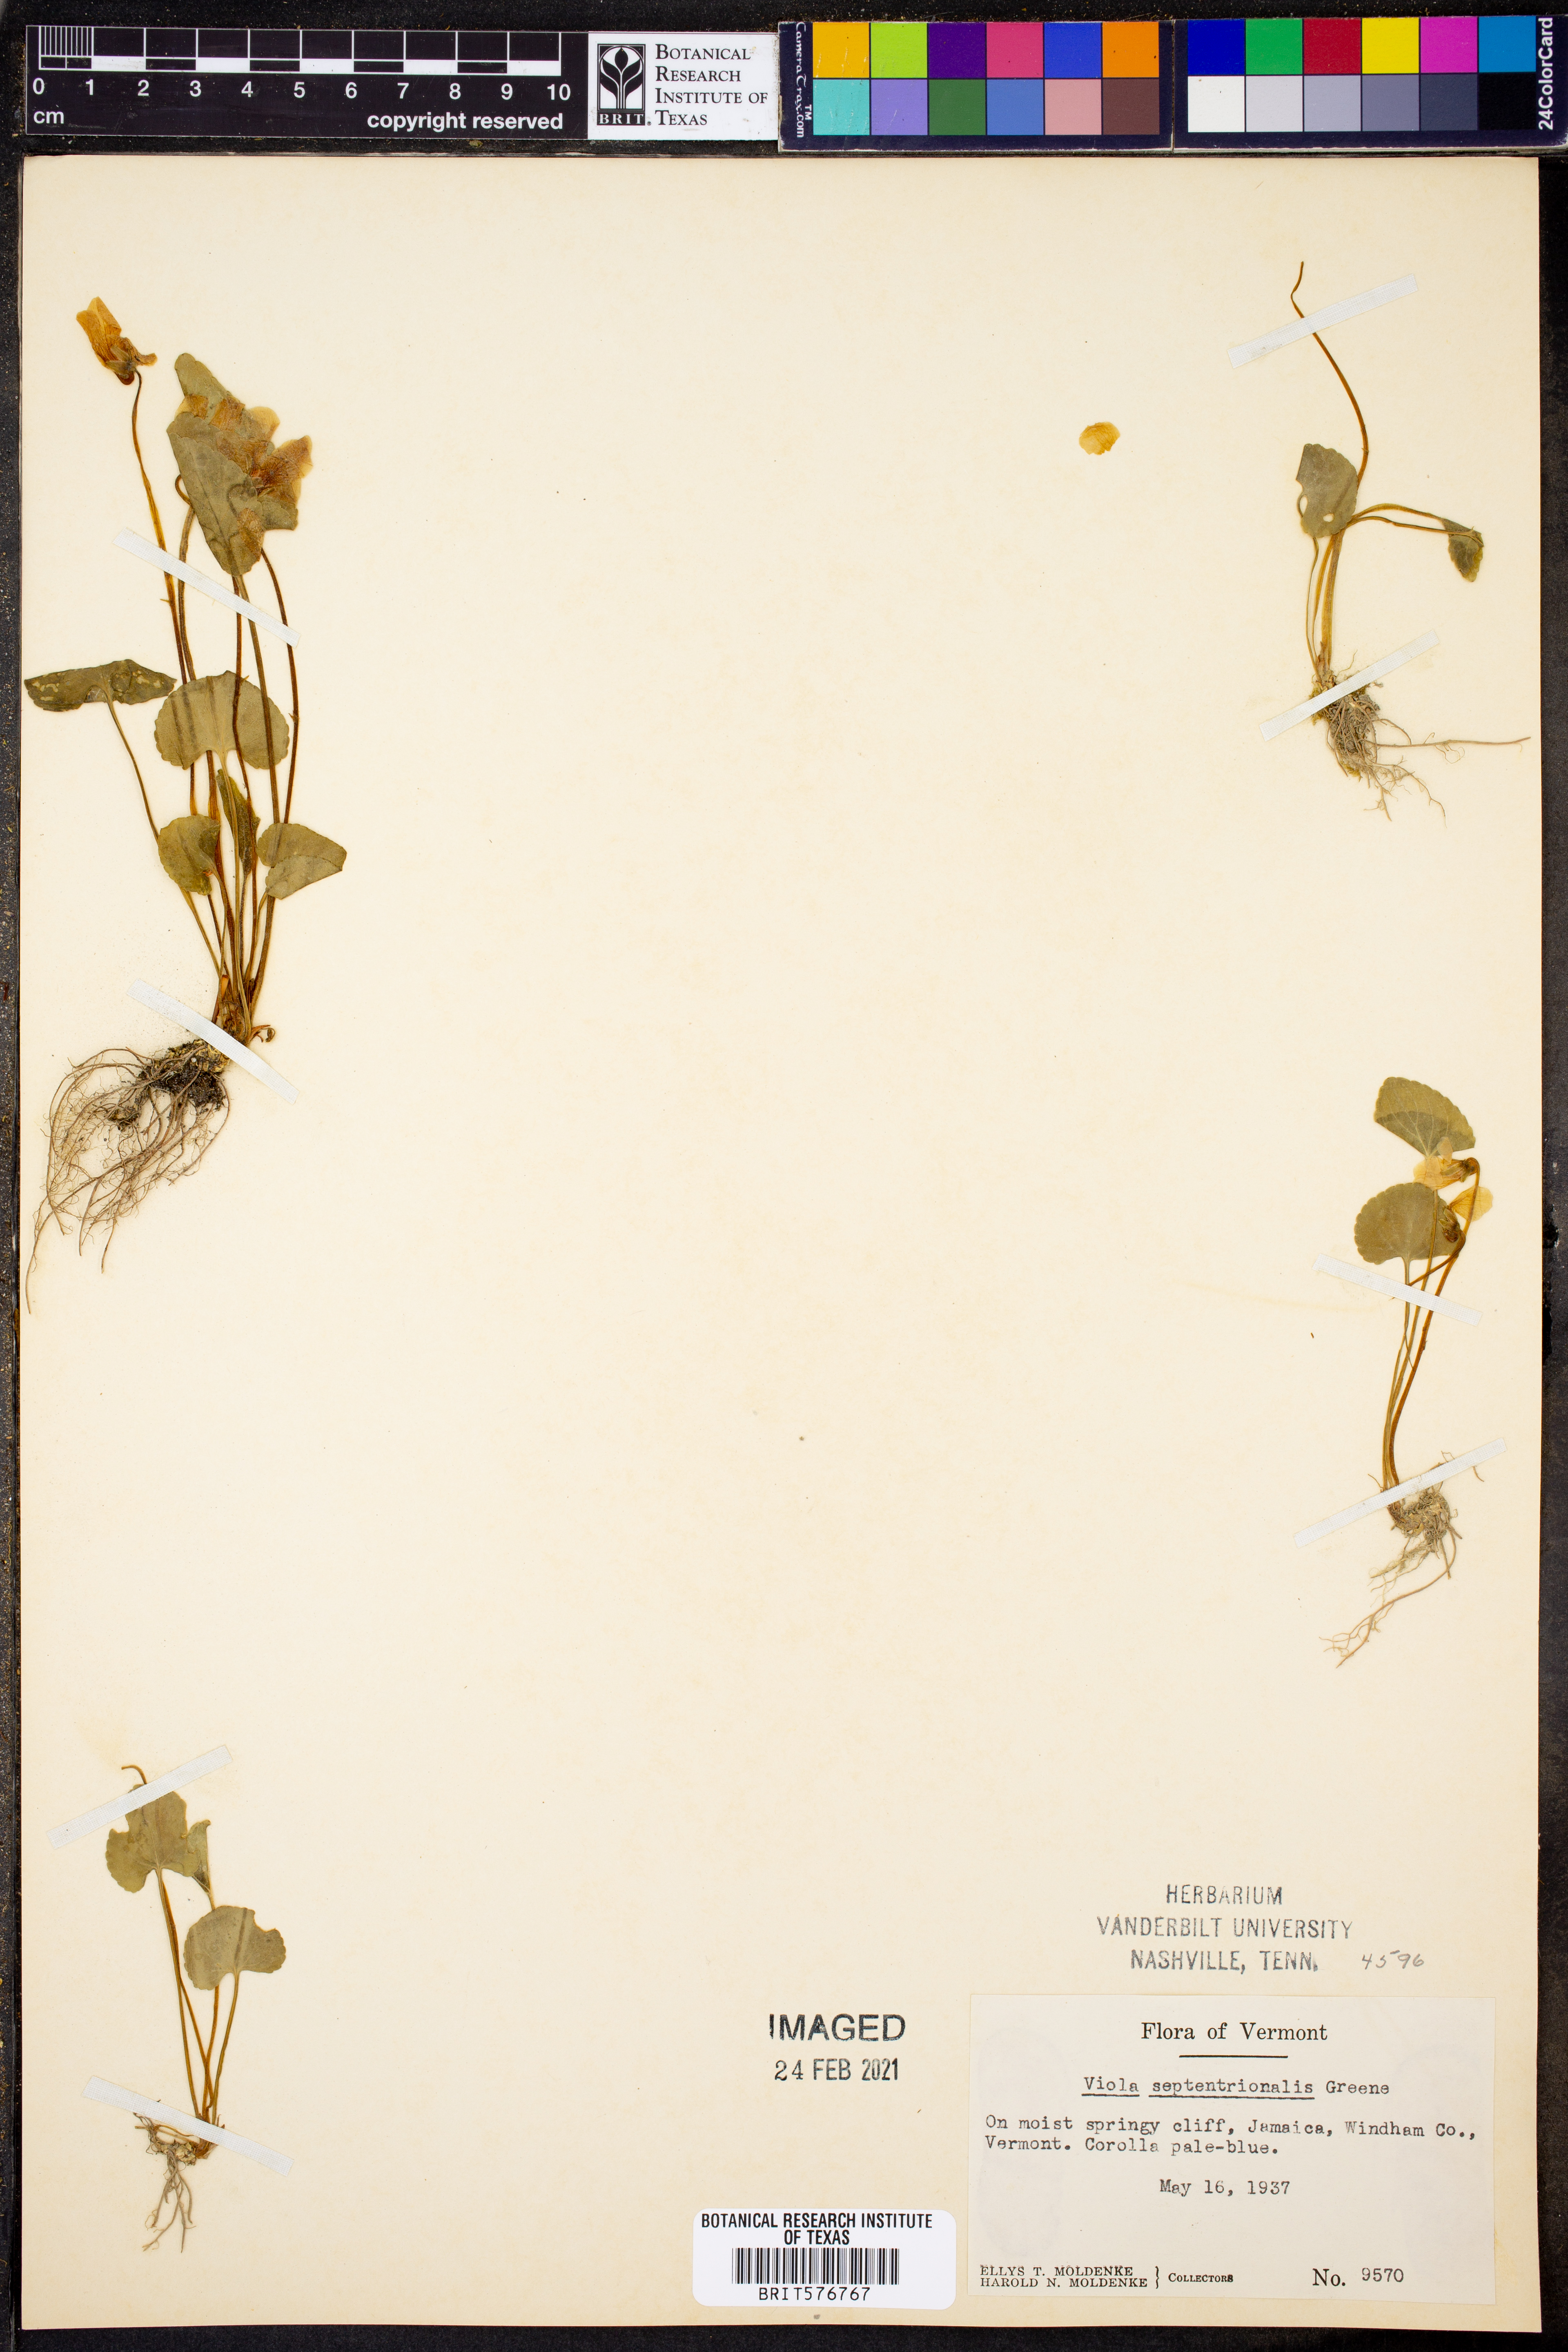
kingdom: Plantae
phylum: Tracheophyta
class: Magnoliopsida
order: Malpighiales
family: Violaceae
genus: Viola
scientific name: Viola septentrionalis
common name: Northern woodland violet
